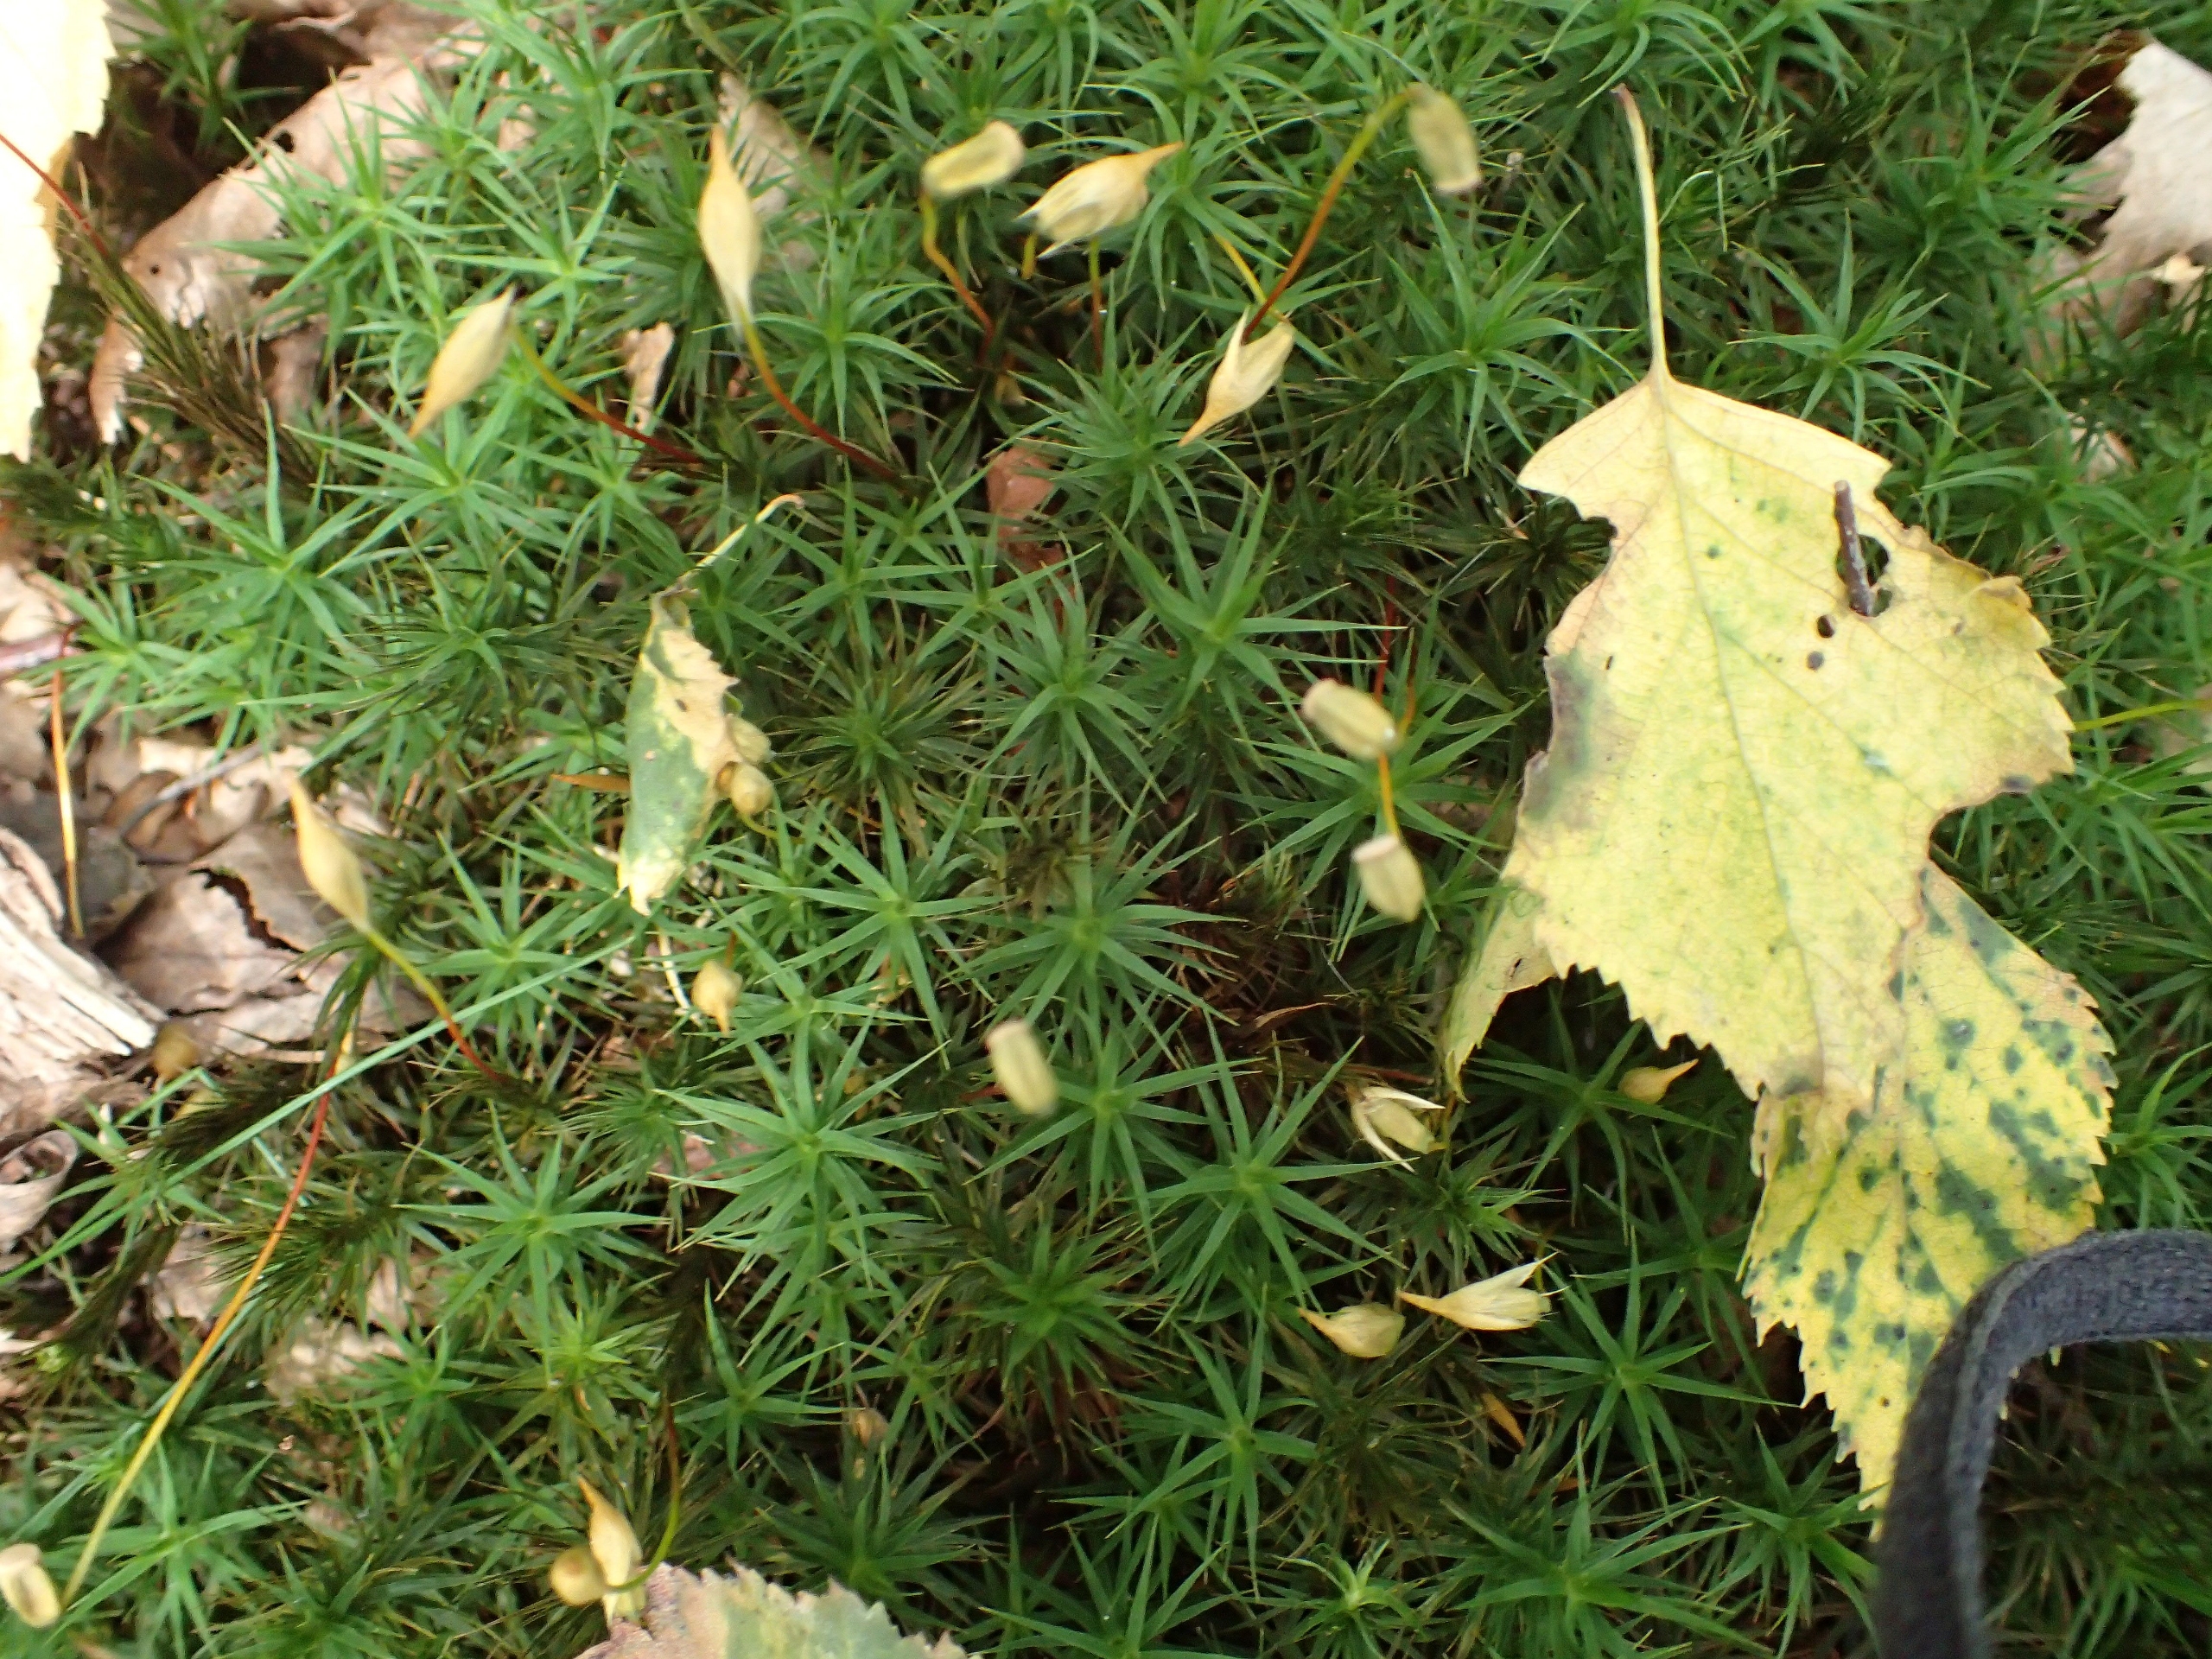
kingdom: Plantae
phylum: Bryophyta
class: Polytrichopsida
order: Polytrichales
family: Polytrichaceae
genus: Polytrichum
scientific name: Polytrichum formosum
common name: Skov-jomfruhår
